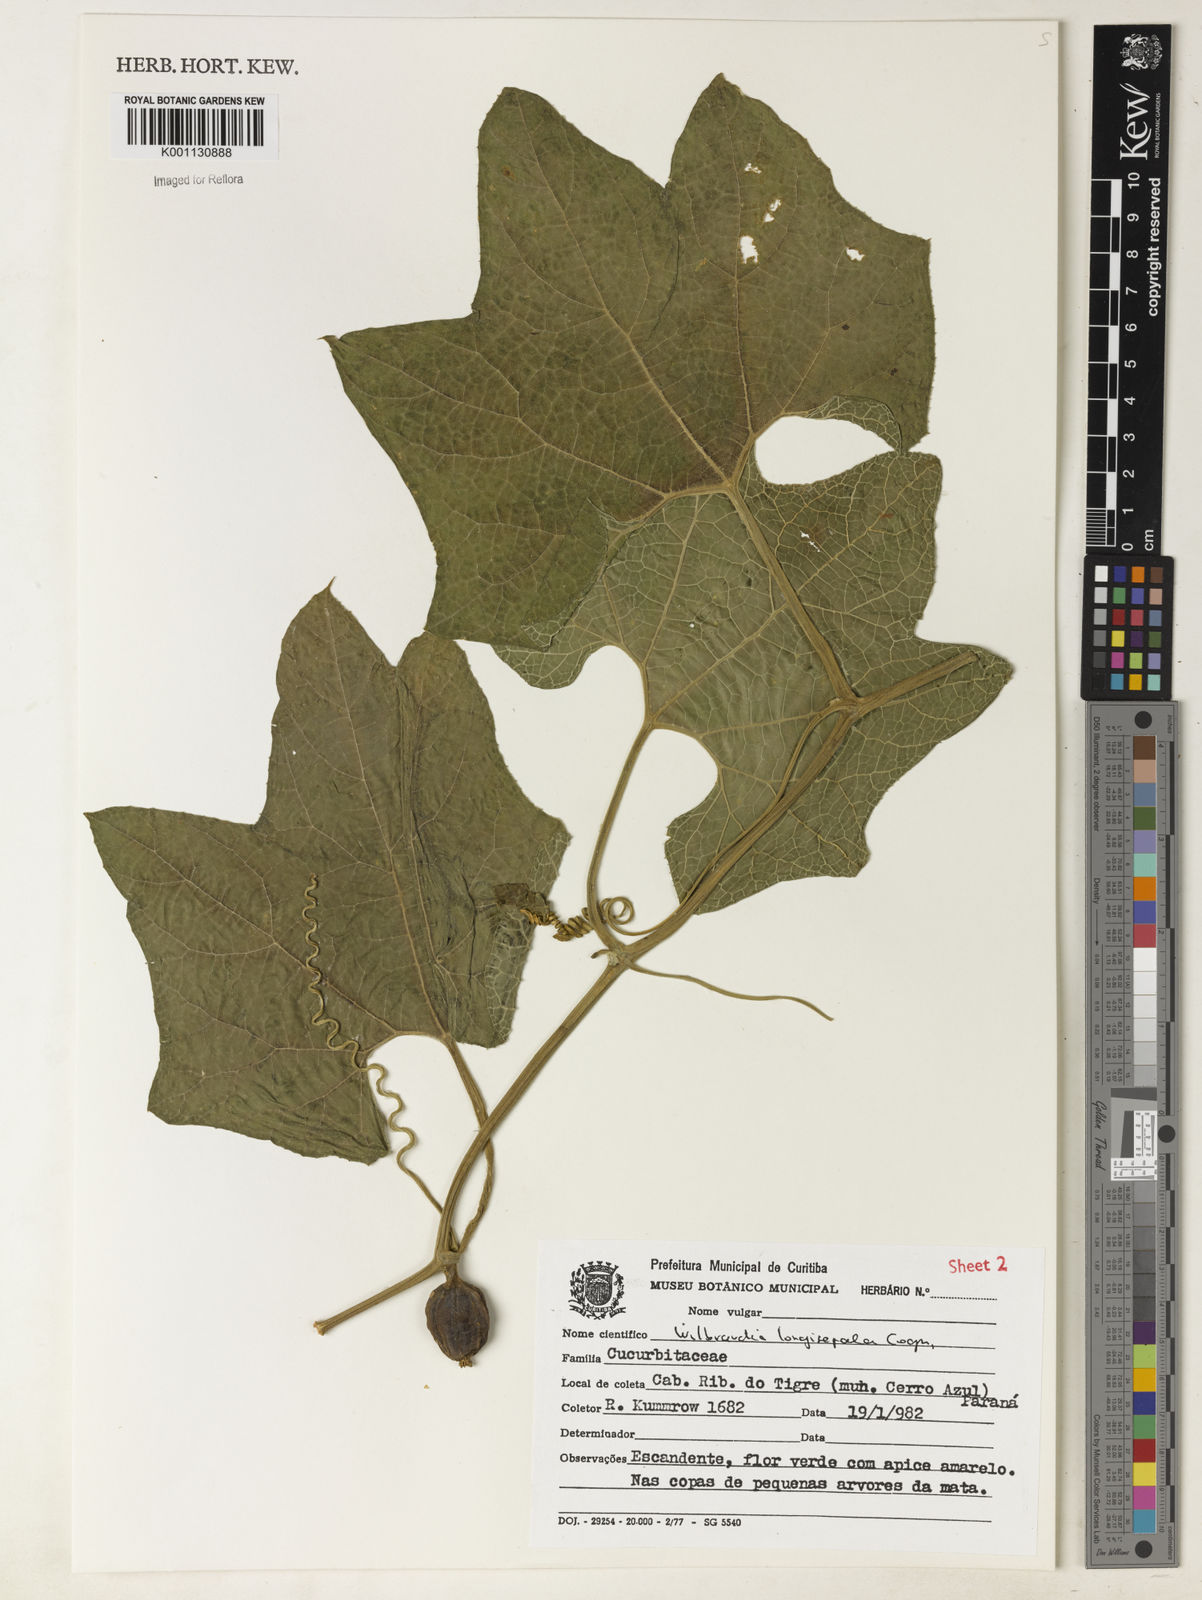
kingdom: Plantae
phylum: Tracheophyta
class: Magnoliopsida
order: Cucurbitales
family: Cucurbitaceae
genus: Wilbrandia
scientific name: Wilbrandia longisepala
